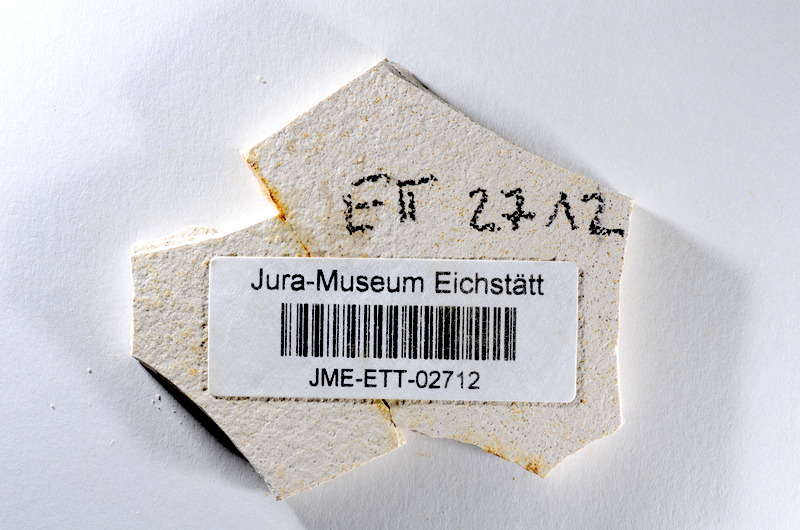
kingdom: Animalia
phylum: Chordata
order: Salmoniformes
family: Orthogonikleithridae
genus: Orthogonikleithrus
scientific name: Orthogonikleithrus hoelli
